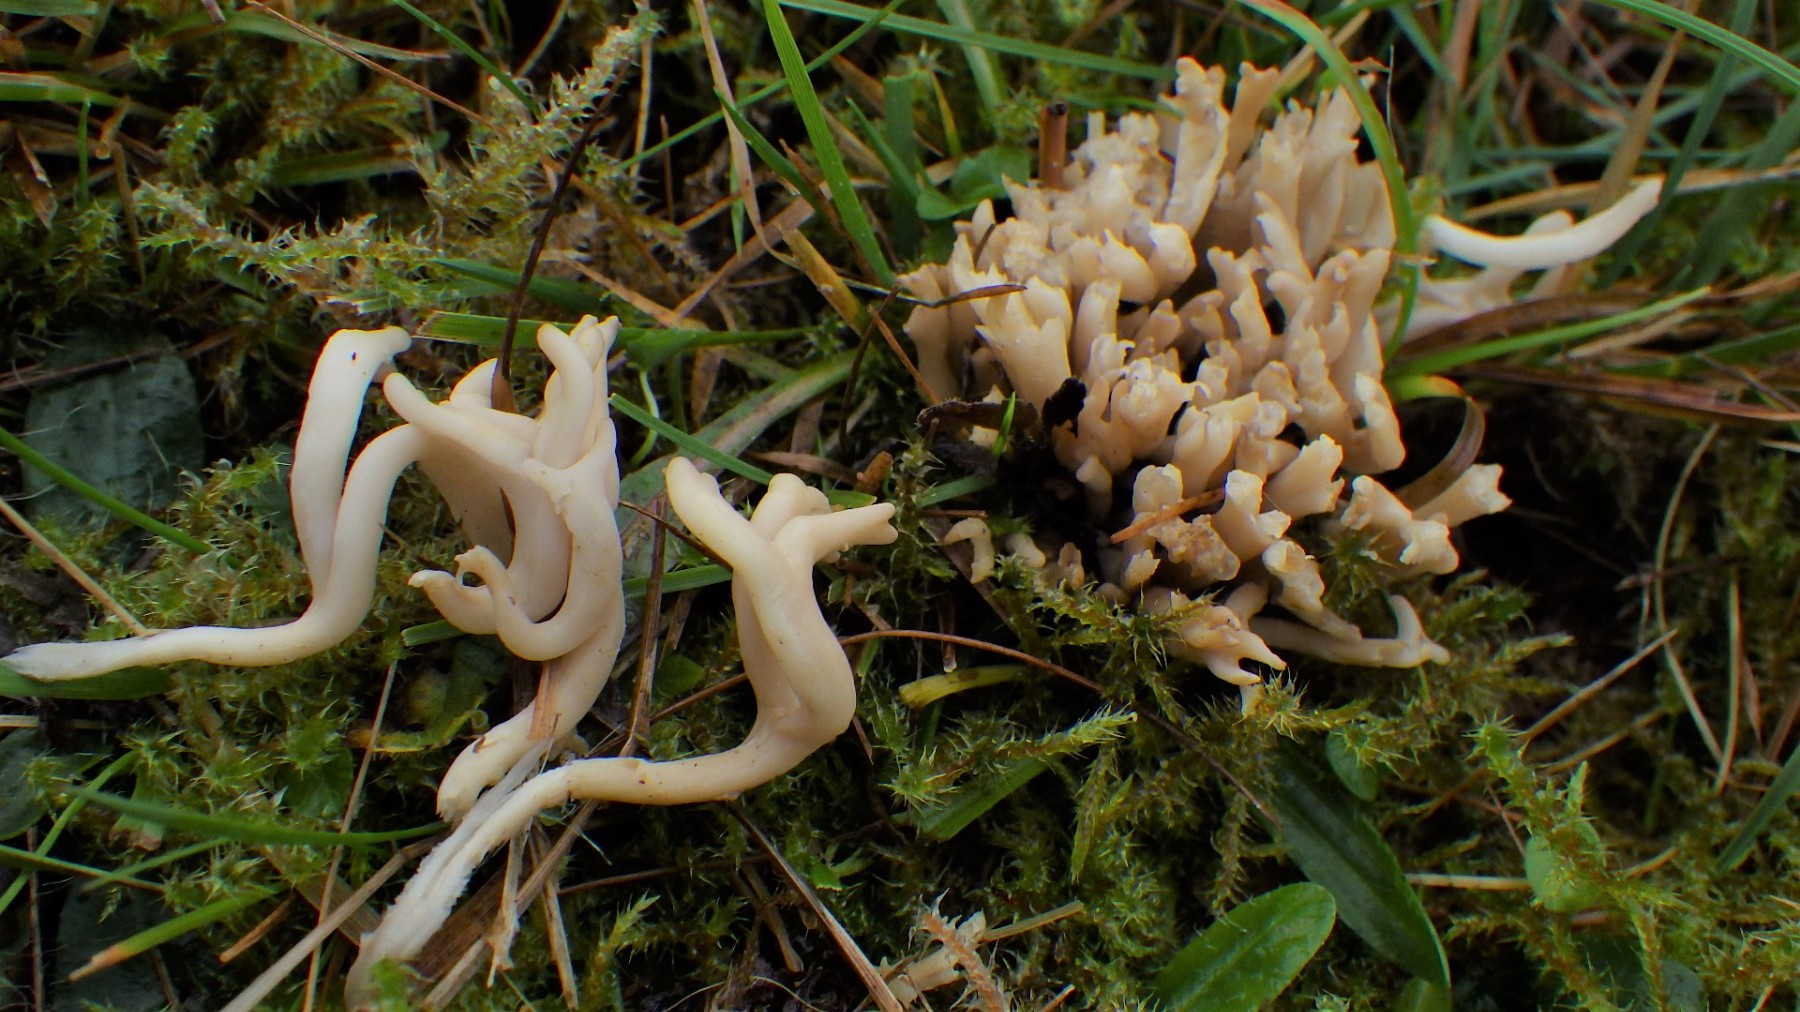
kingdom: Fungi
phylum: Basidiomycota
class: Agaricomycetes
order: Agaricales
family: Clavariaceae
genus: Clavulinopsis
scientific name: Clavulinopsis umbrinella
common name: gulgrå køllesvamp
